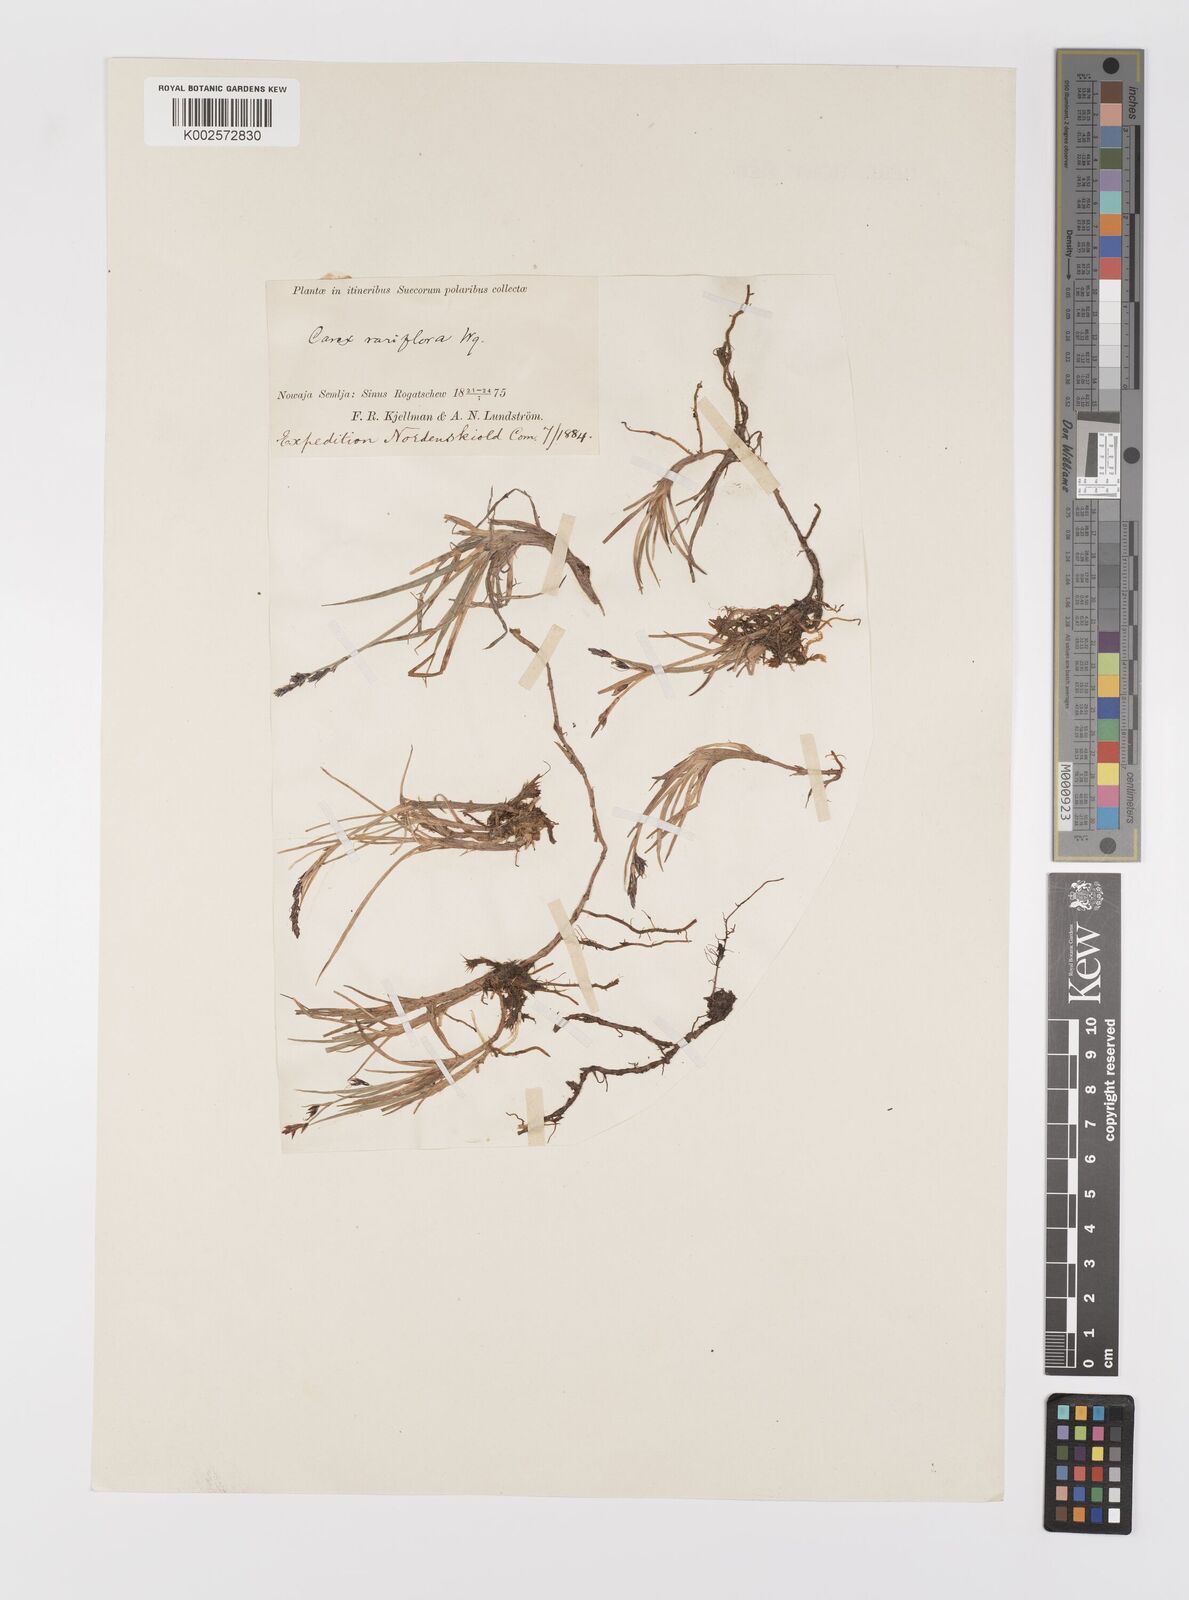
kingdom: Plantae
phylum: Tracheophyta
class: Liliopsida
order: Poales
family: Cyperaceae
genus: Carex
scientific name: Carex rariflora
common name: Loose-flowered alpine sedge
